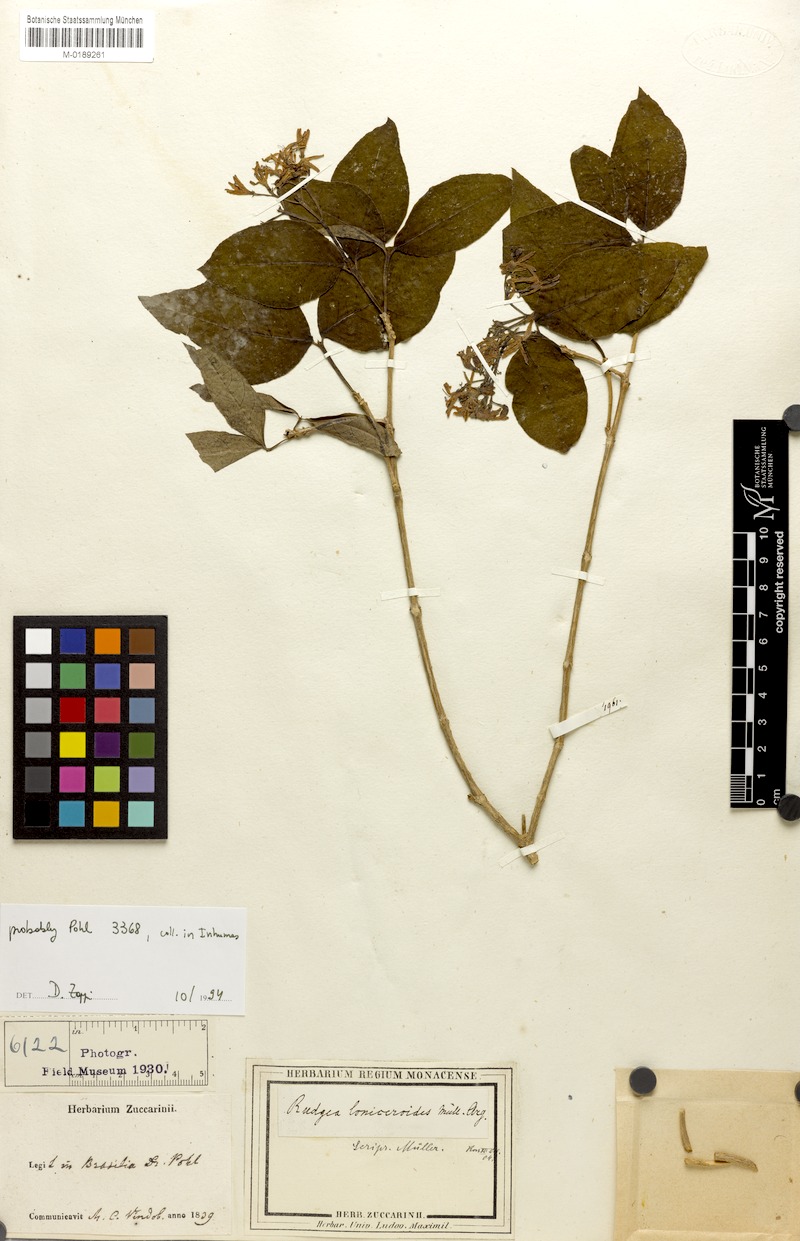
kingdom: Plantae
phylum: Tracheophyta
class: Magnoliopsida
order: Gentianales
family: Rubiaceae
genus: Rudgea
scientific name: Rudgea minor
